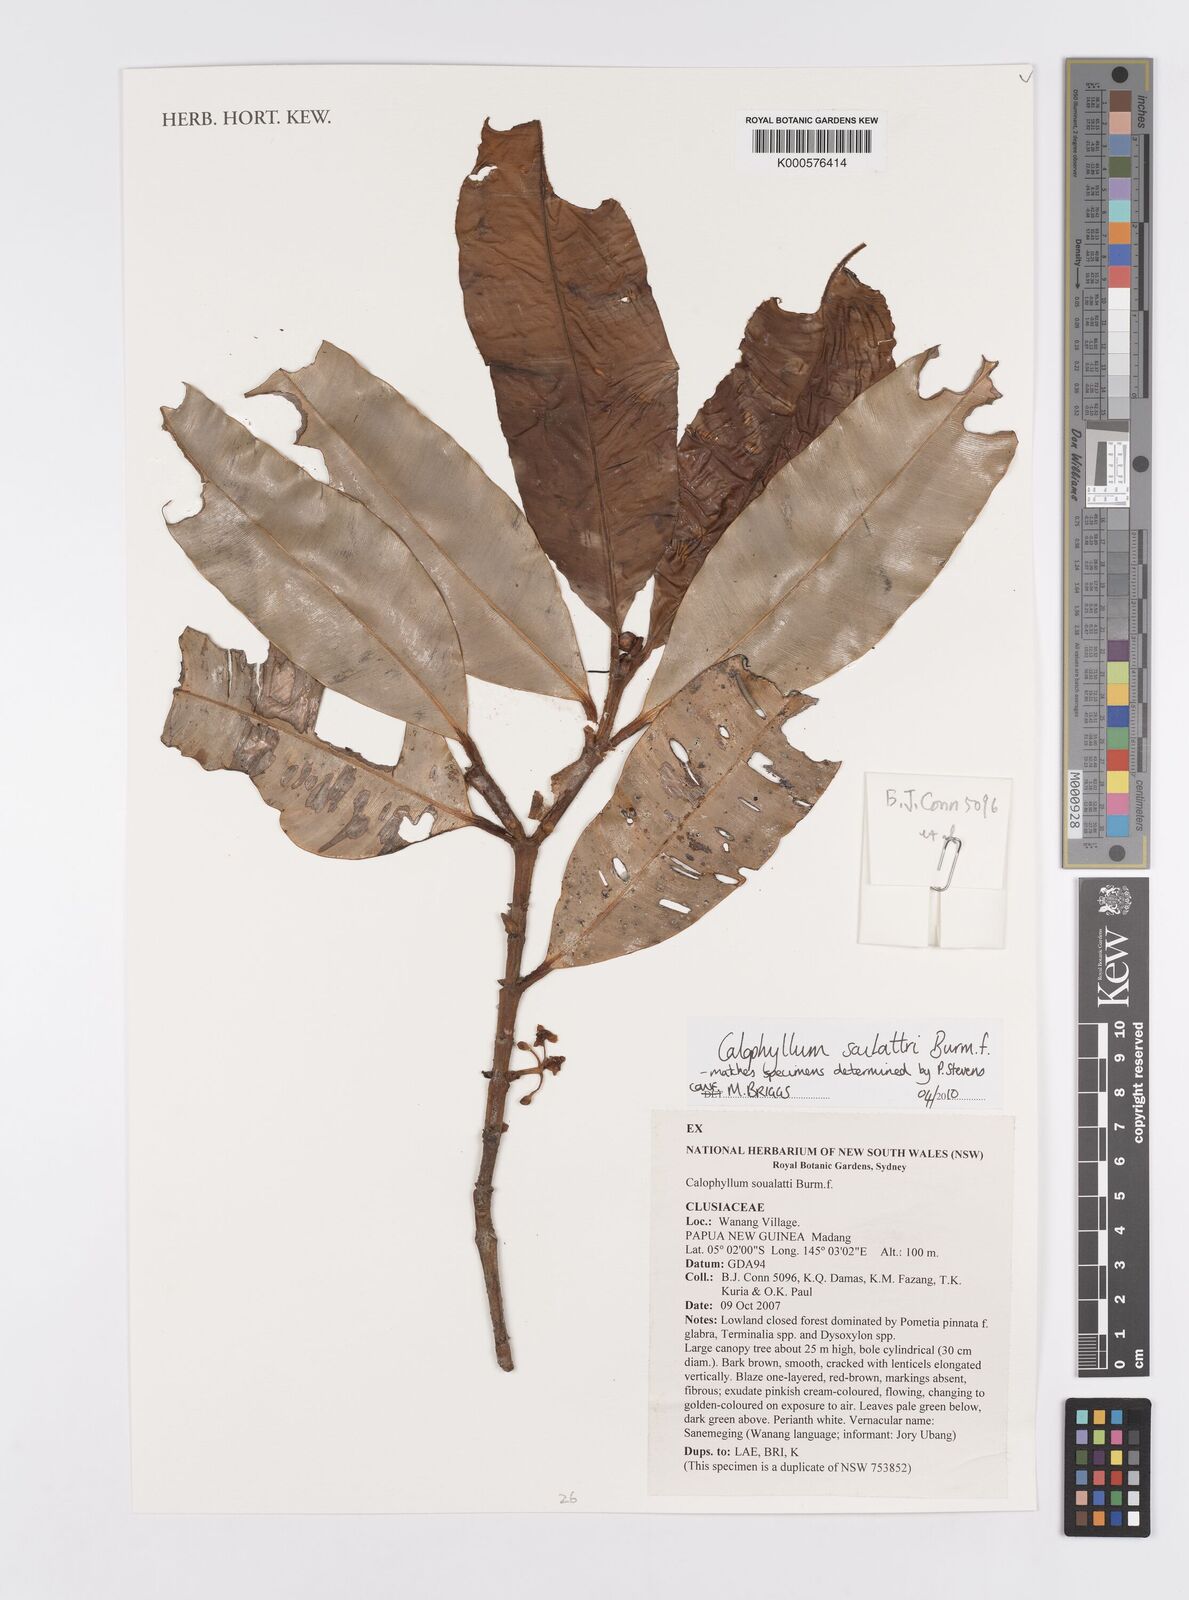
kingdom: Plantae
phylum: Tracheophyta
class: Magnoliopsida
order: Malpighiales
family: Calophyllaceae
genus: Calophyllum
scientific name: Calophyllum soulattri
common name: Bitangoor boonot
